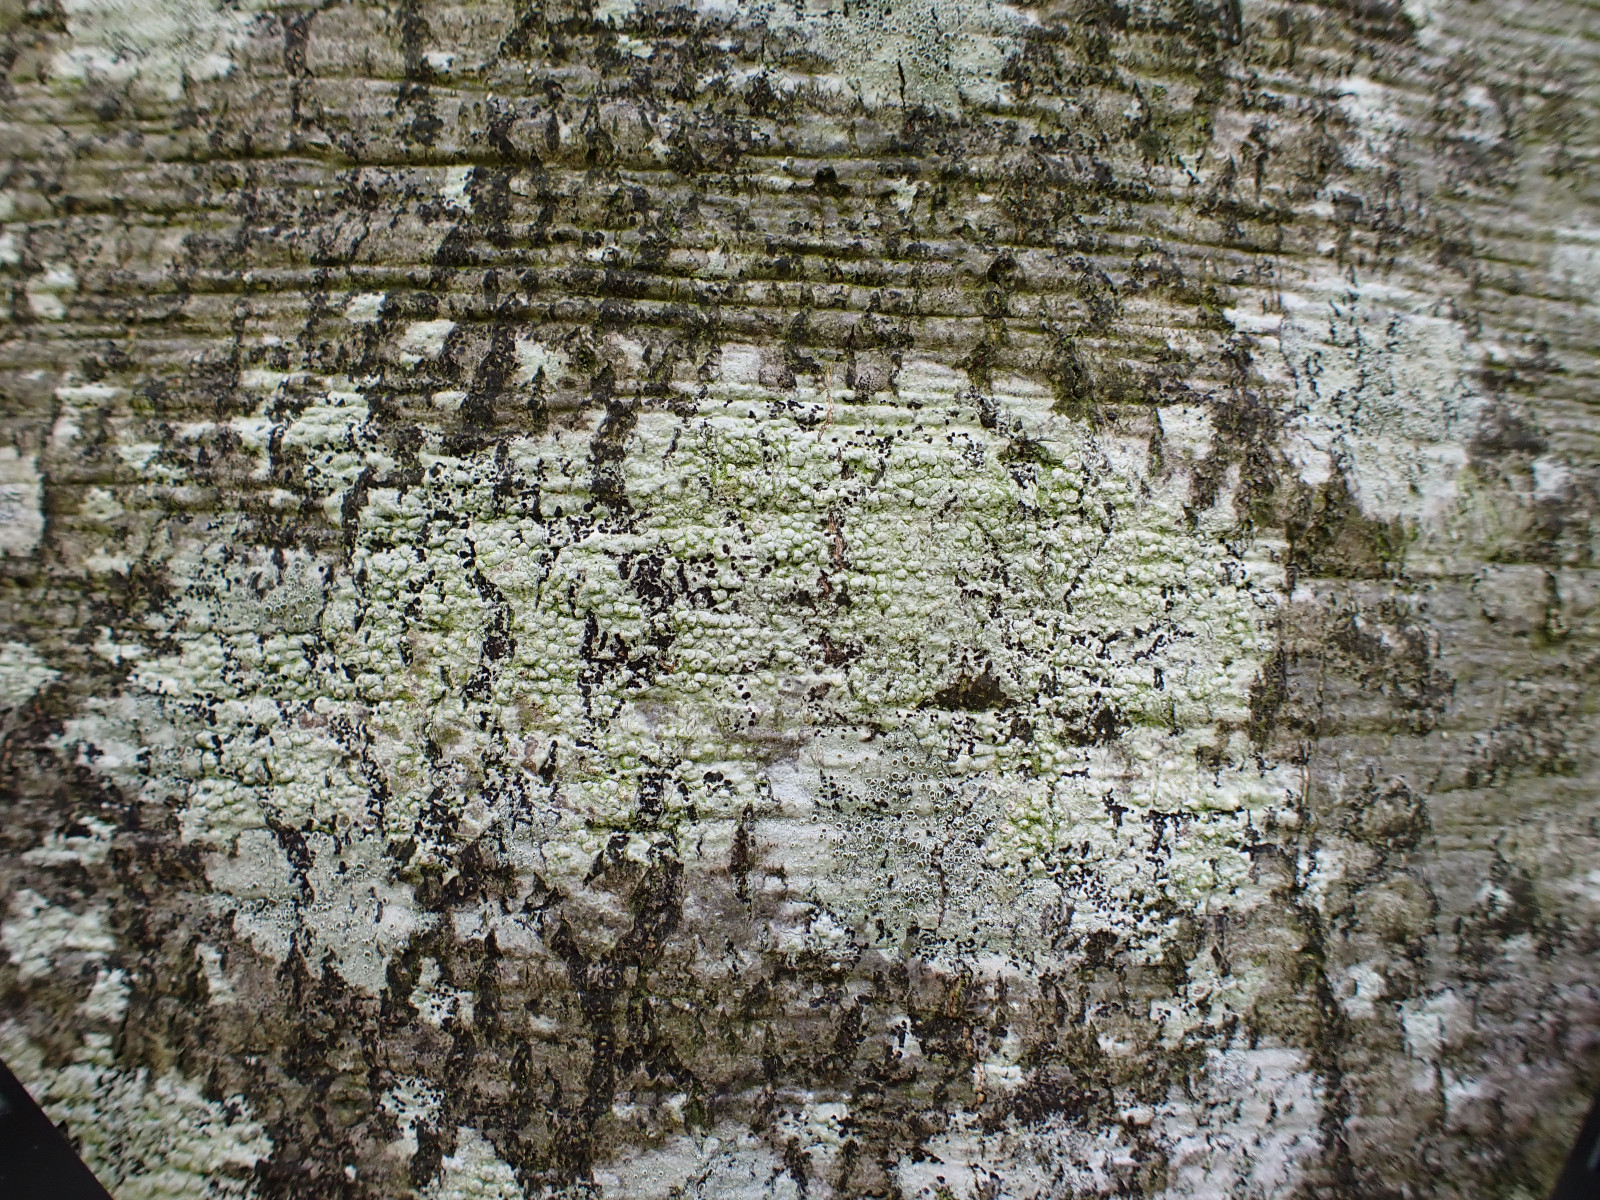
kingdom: Fungi
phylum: Ascomycota
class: Lecanoromycetes
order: Pertusariales
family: Pertusariaceae
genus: Pertusaria
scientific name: Pertusaria leioplaca
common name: tynd prikvortelav
